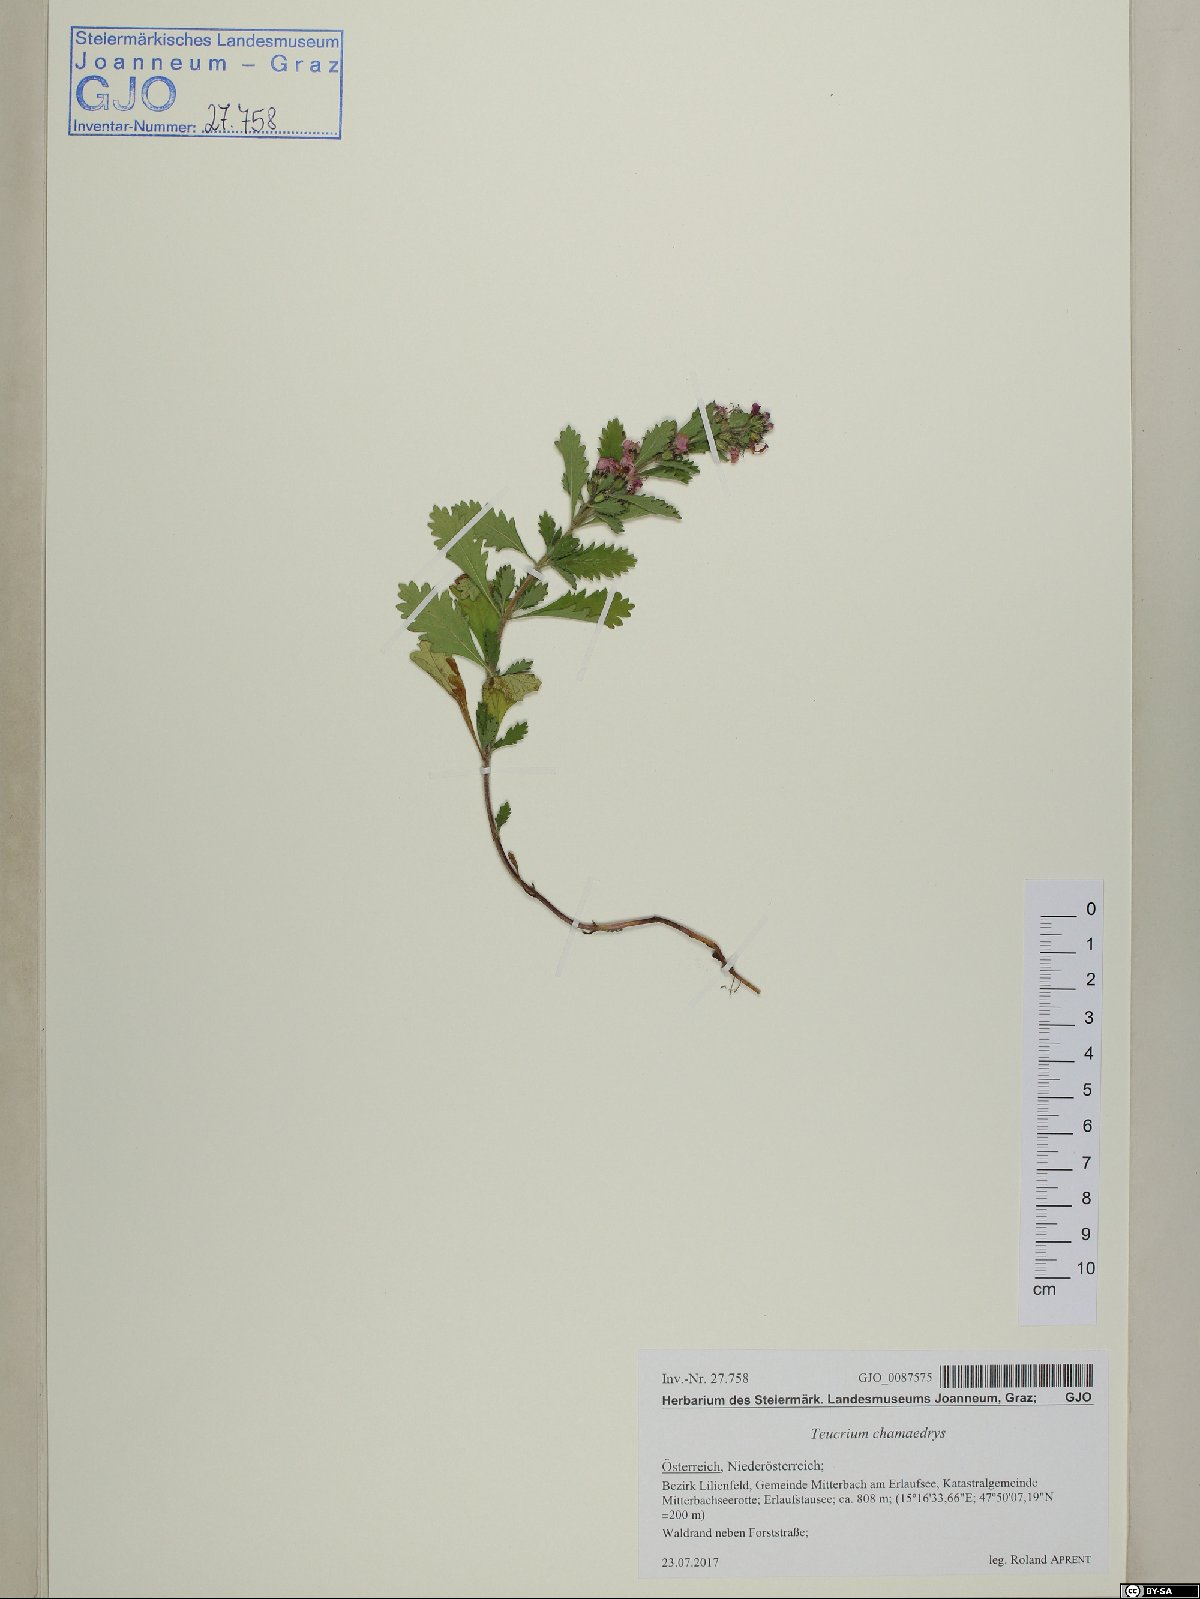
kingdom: Plantae
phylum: Tracheophyta
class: Magnoliopsida
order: Lamiales
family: Lamiaceae
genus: Teucrium
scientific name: Teucrium chamaedrys
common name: Wall germander
